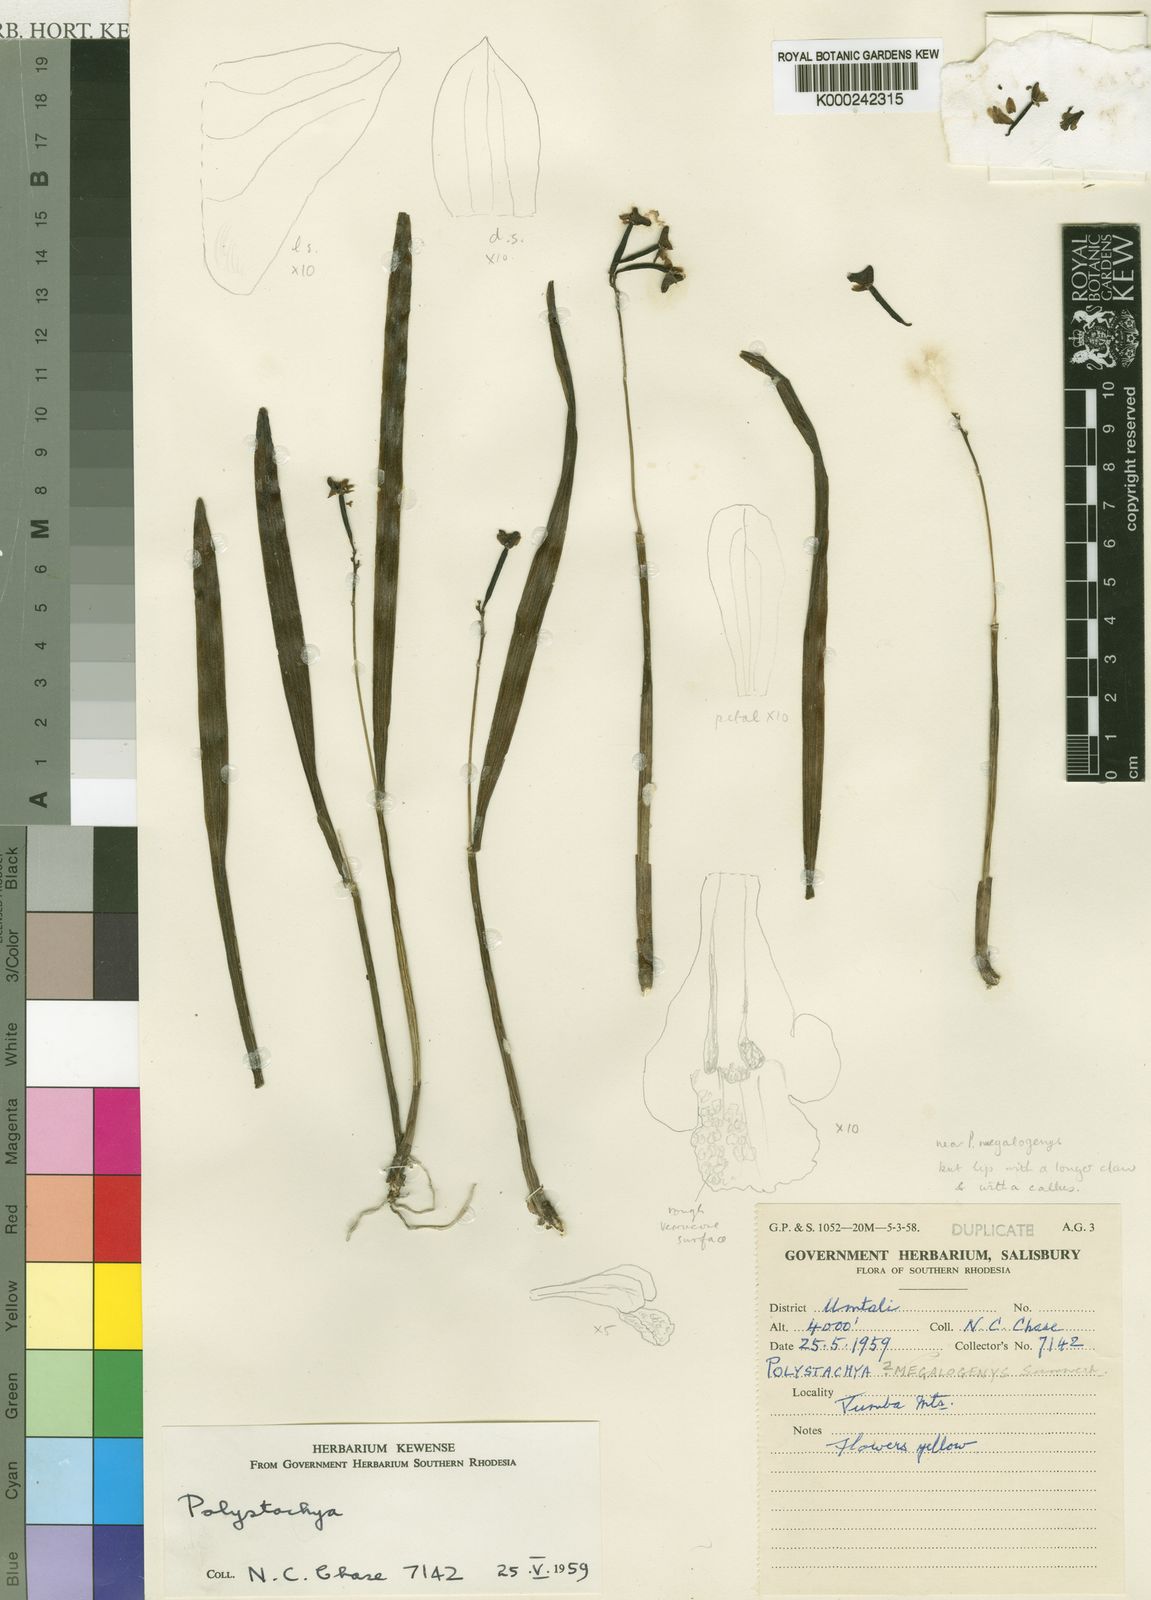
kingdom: Plantae
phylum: Tracheophyta
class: Liliopsida
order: Asparagales
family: Orchidaceae
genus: Polystachya
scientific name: Polystachya subumbellata
